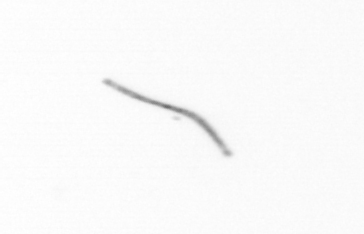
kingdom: Chromista
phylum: Ochrophyta
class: Bacillariophyceae
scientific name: Bacillariophyceae
